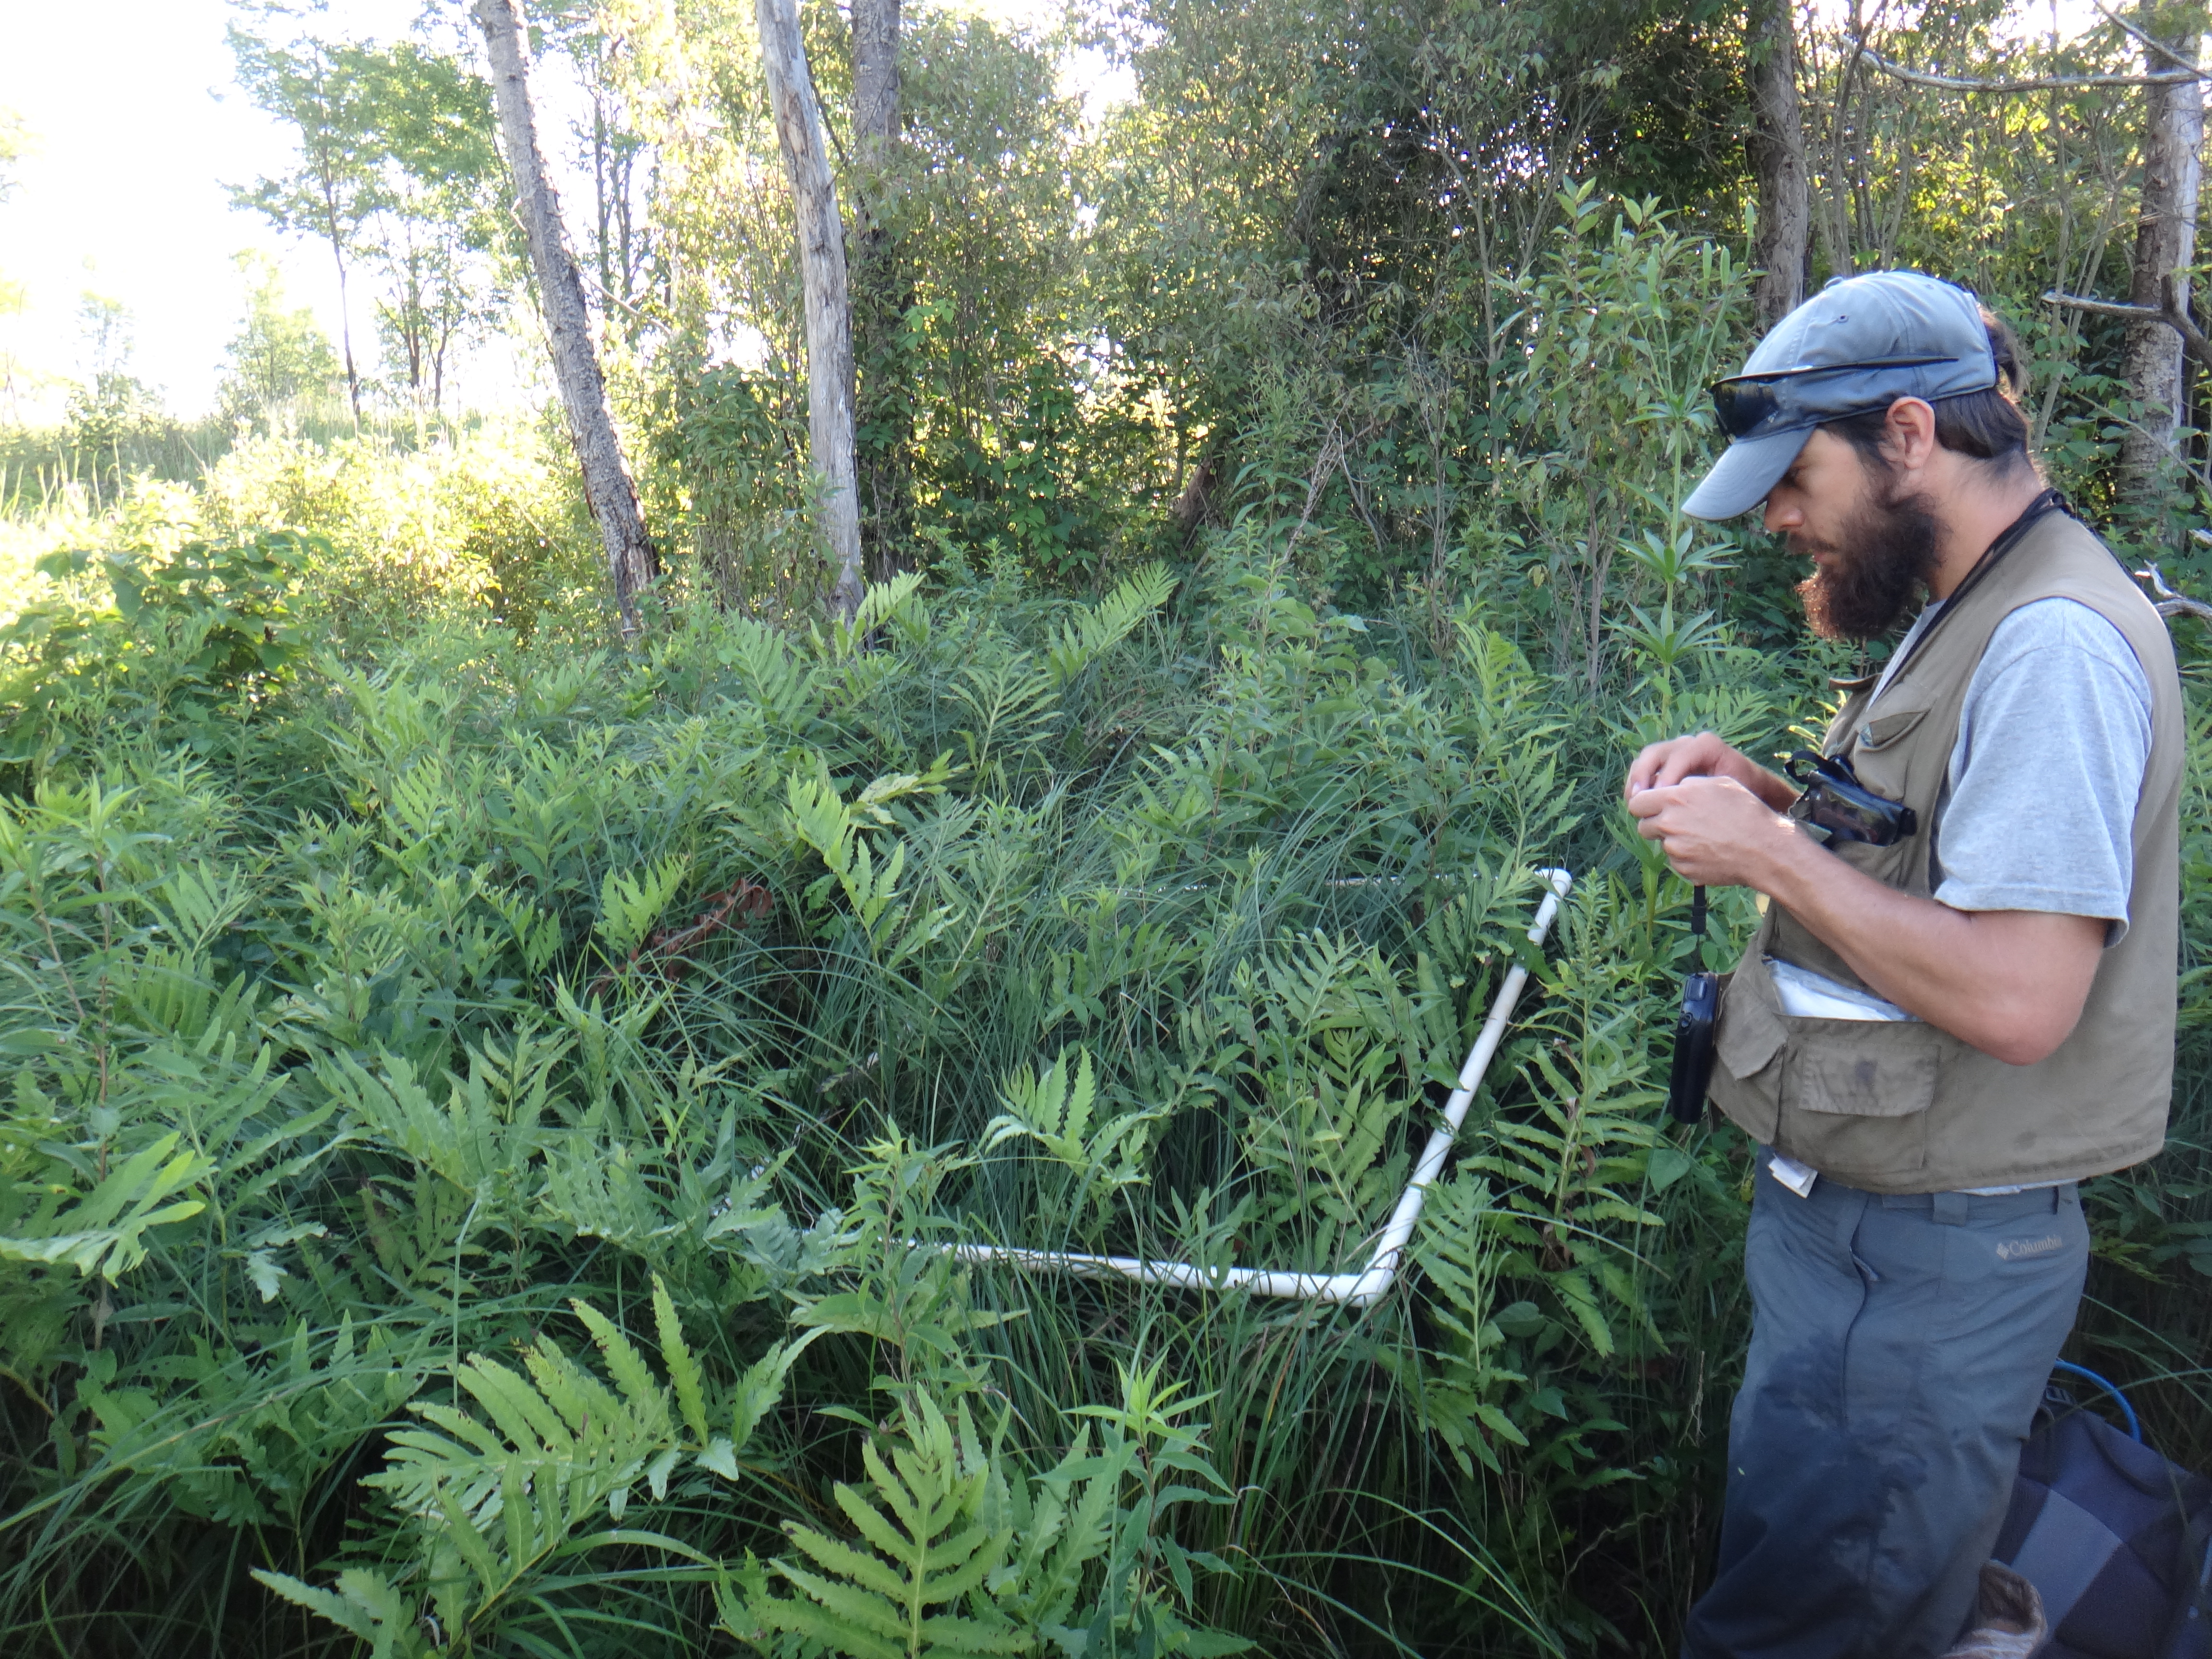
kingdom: Plantae
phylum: Tracheophyta
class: Magnoliopsida
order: Fagales
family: Betulaceae
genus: Corylus
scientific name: Corylus americana
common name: American hazel
